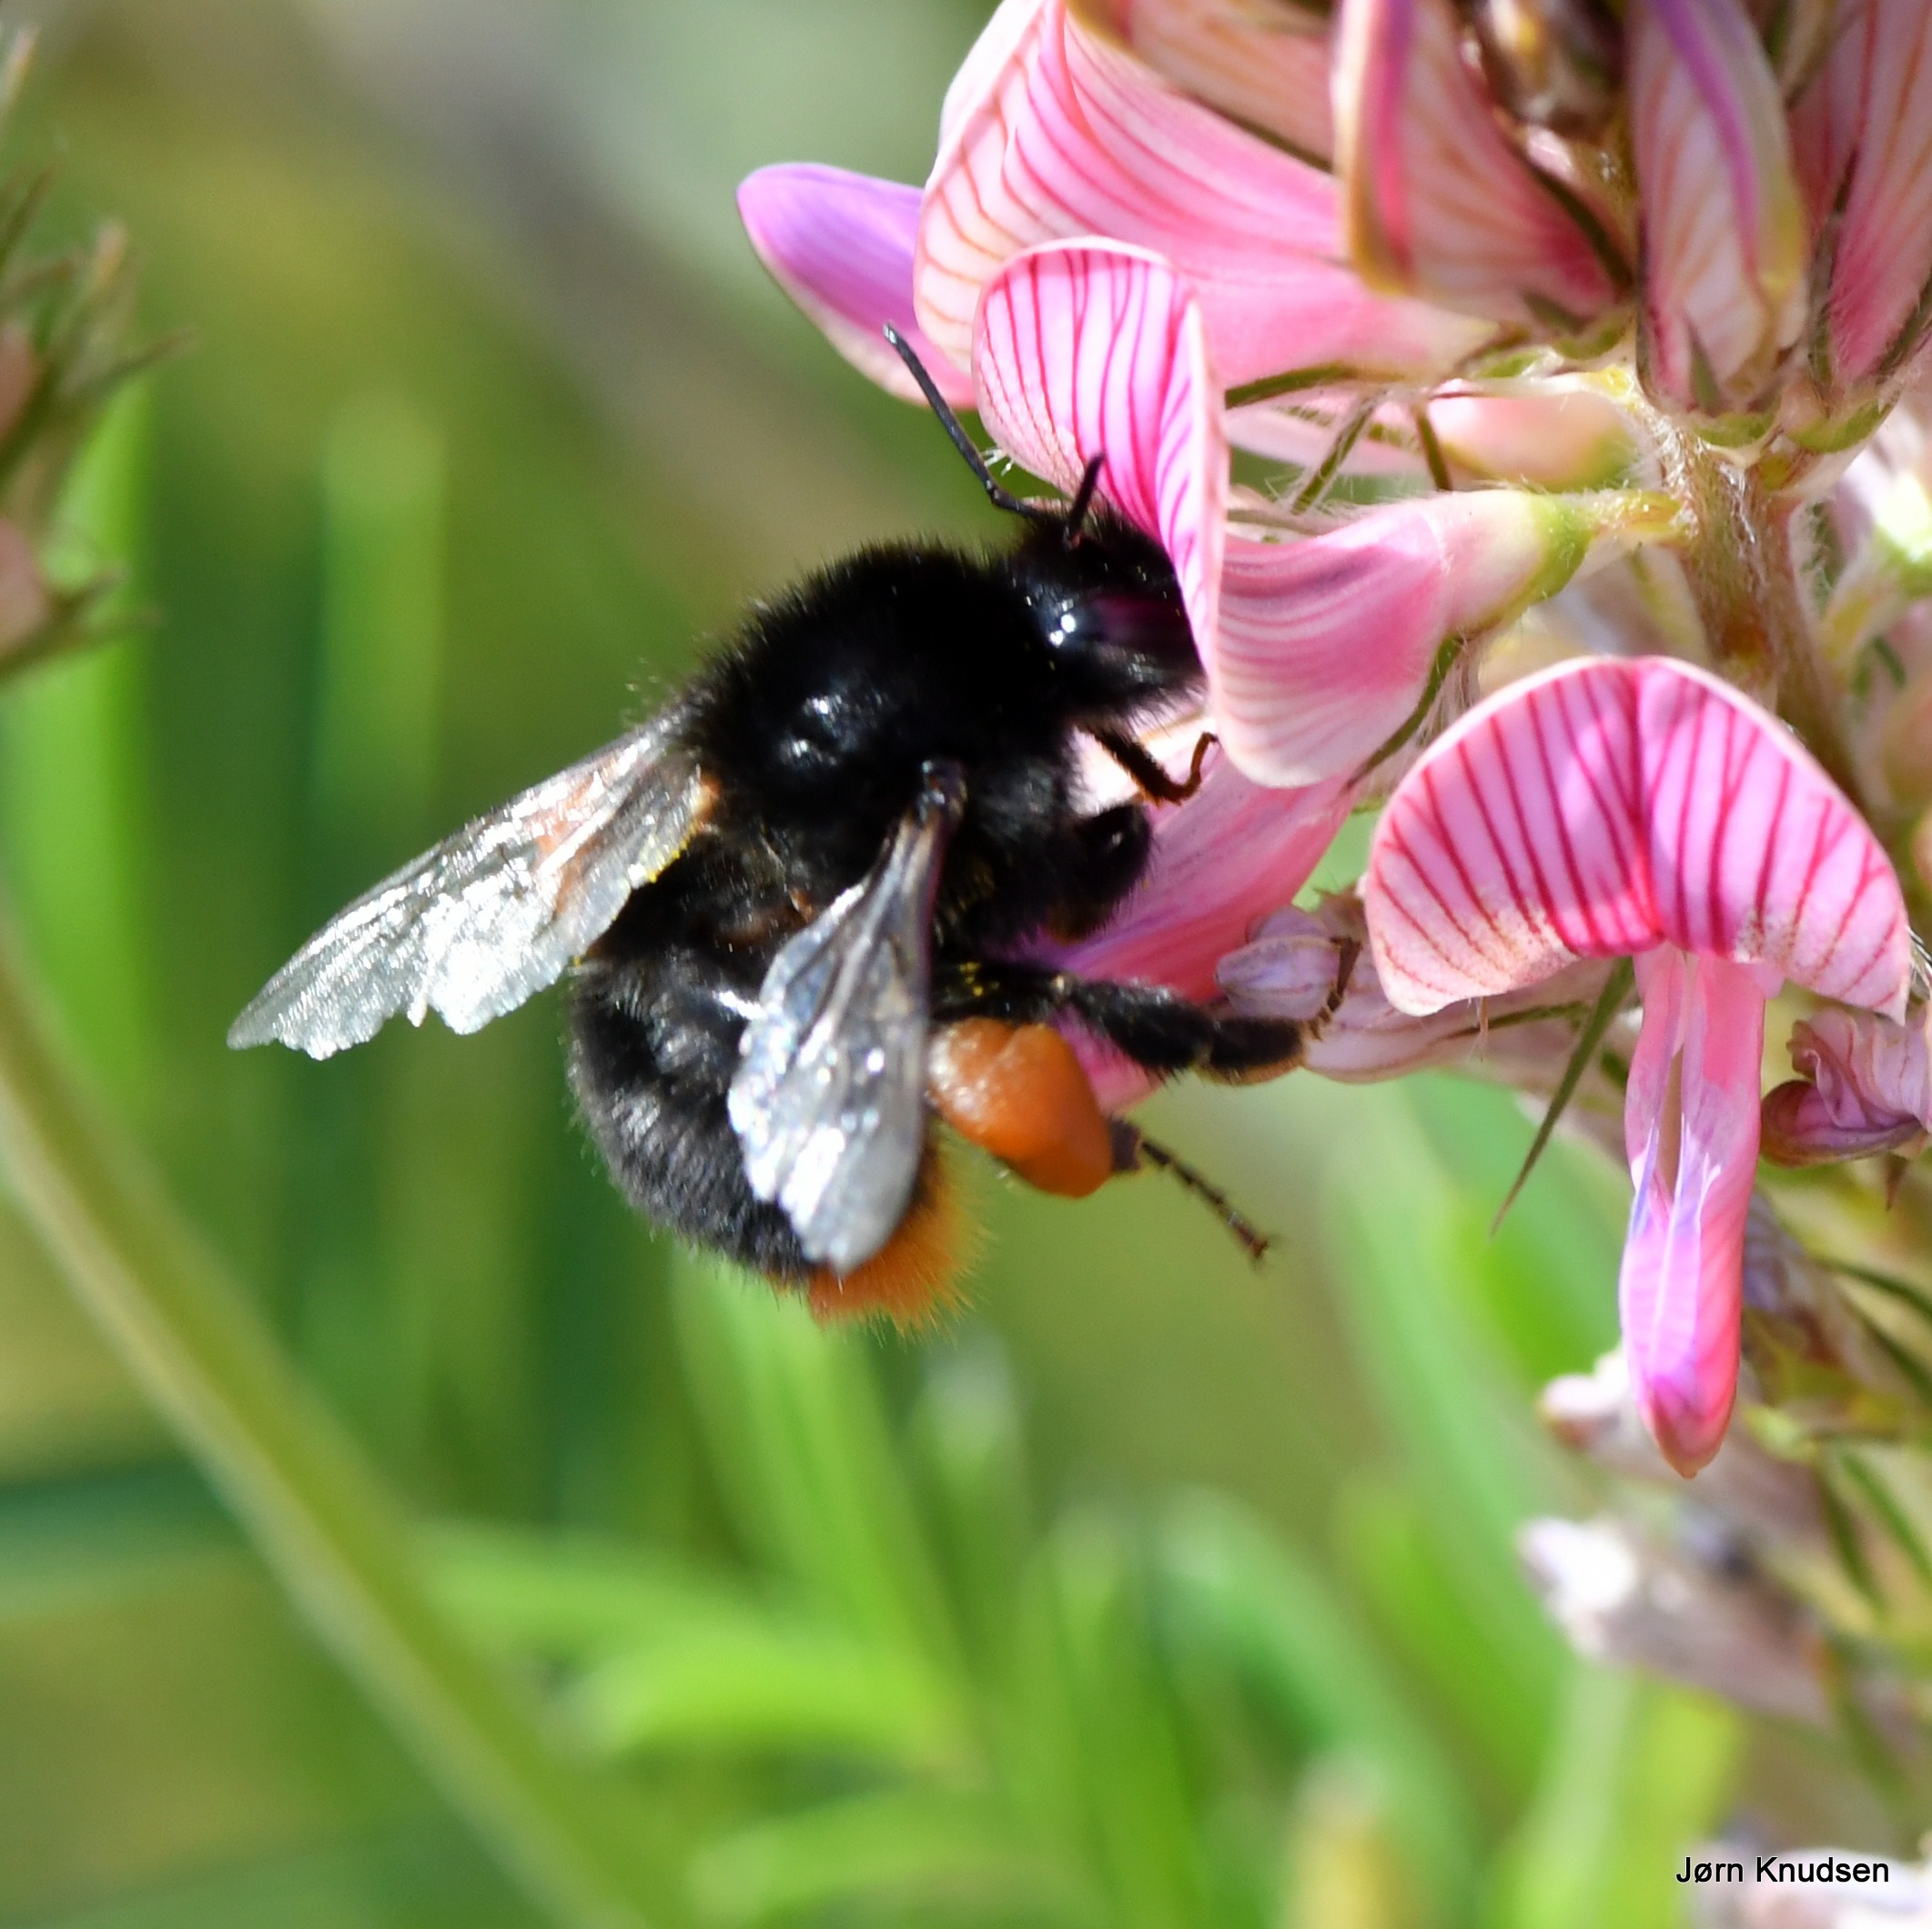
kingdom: Animalia
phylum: Arthropoda
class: Insecta
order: Hymenoptera
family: Apidae
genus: Bombus
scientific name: Bombus lapidarius
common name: Stenhumle
